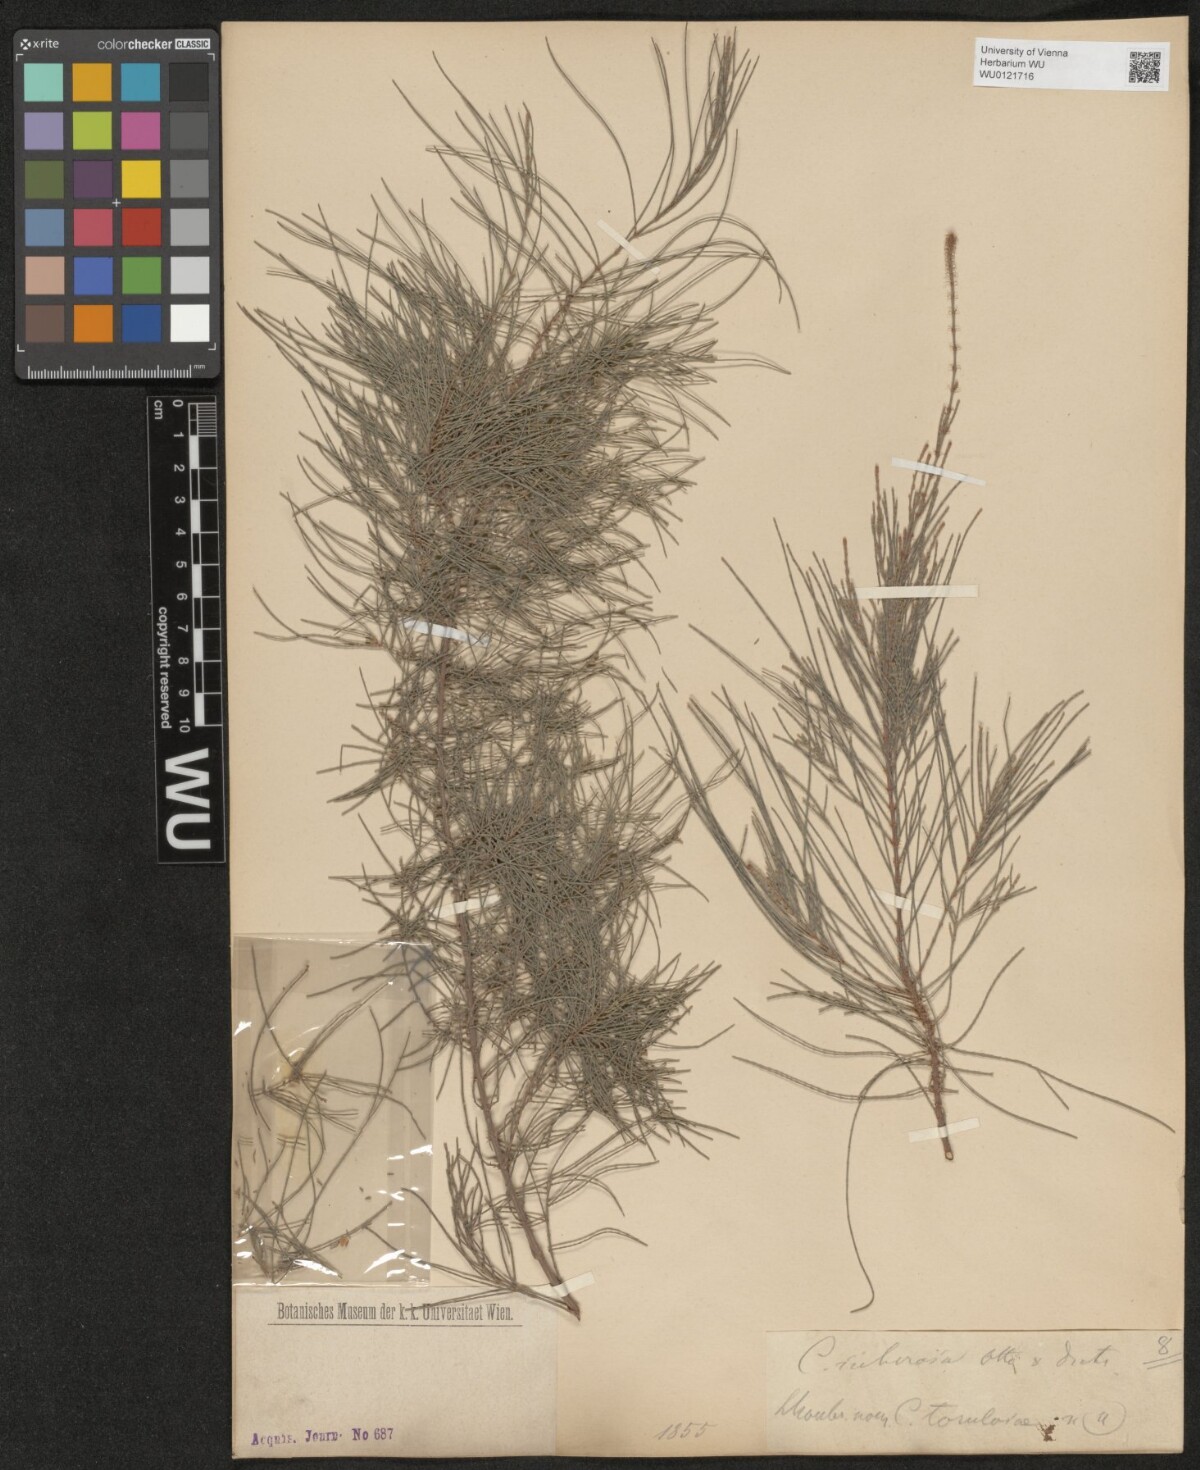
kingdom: Plantae
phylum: Tracheophyta
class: Magnoliopsida
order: Fagales
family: Casuarinaceae
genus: Allocasuarina
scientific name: Allocasuarina littoralis
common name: Black she-oak
